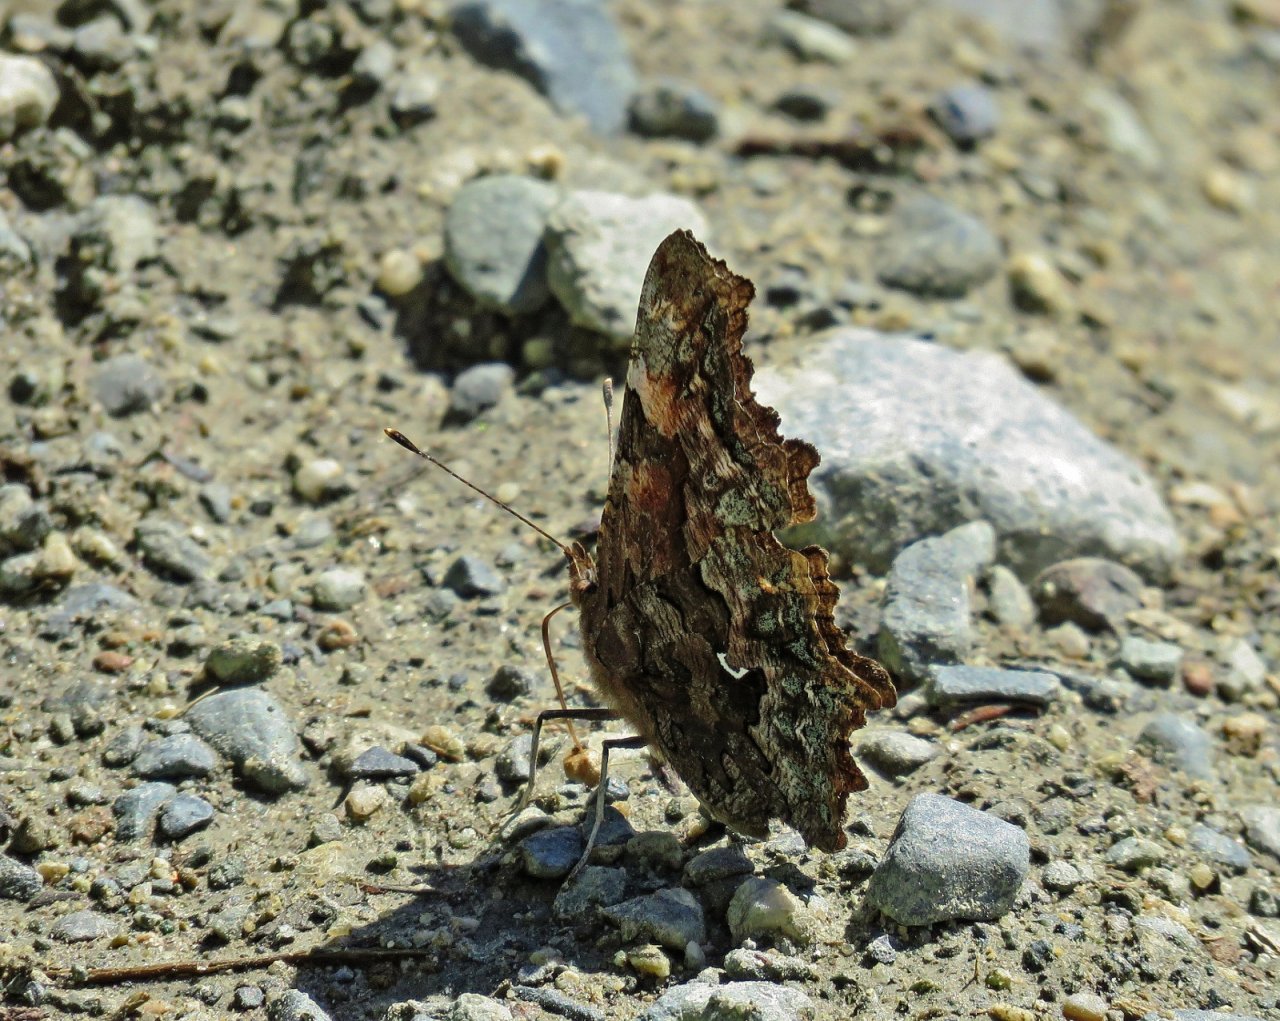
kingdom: Animalia
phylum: Arthropoda
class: Insecta
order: Lepidoptera
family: Nymphalidae
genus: Polygonia
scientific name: Polygonia faunus
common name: Green Comma
